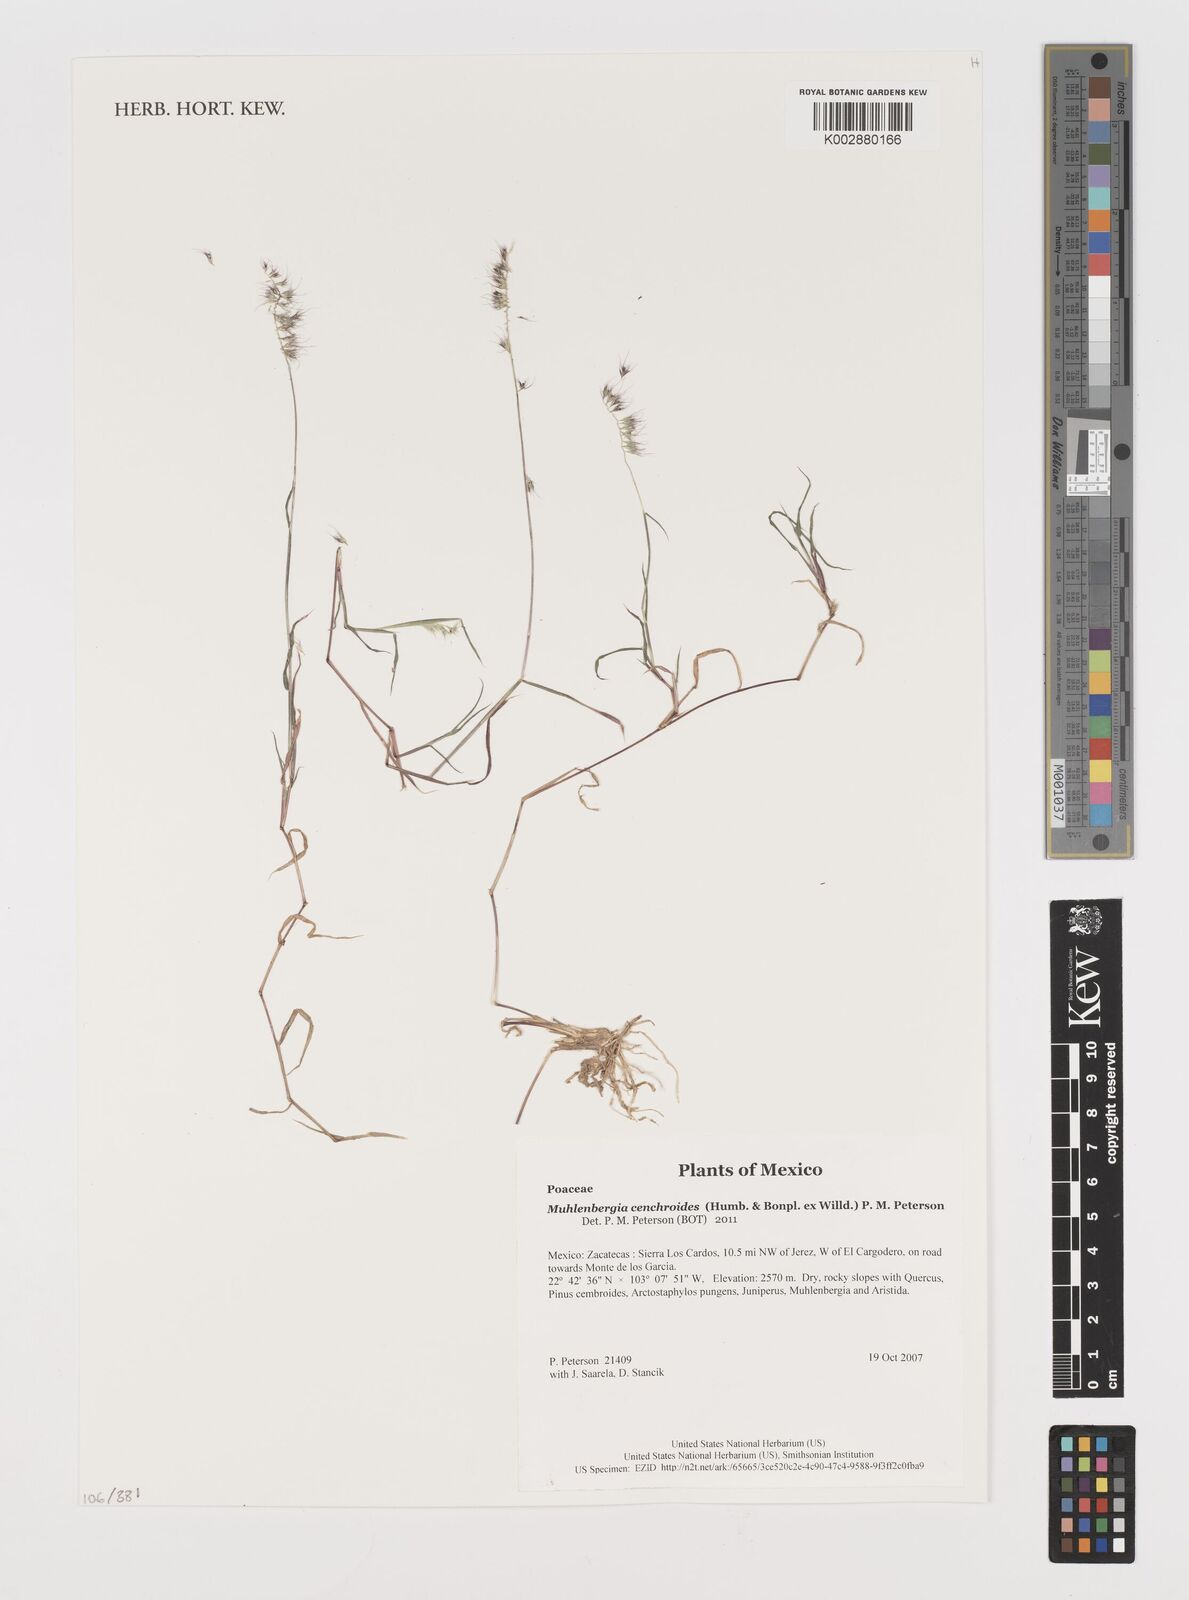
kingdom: Plantae
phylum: Tracheophyta
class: Liliopsida
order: Poales
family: Poaceae
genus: Muhlenbergia
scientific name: Muhlenbergia cenchroides
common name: Relaxgrass
